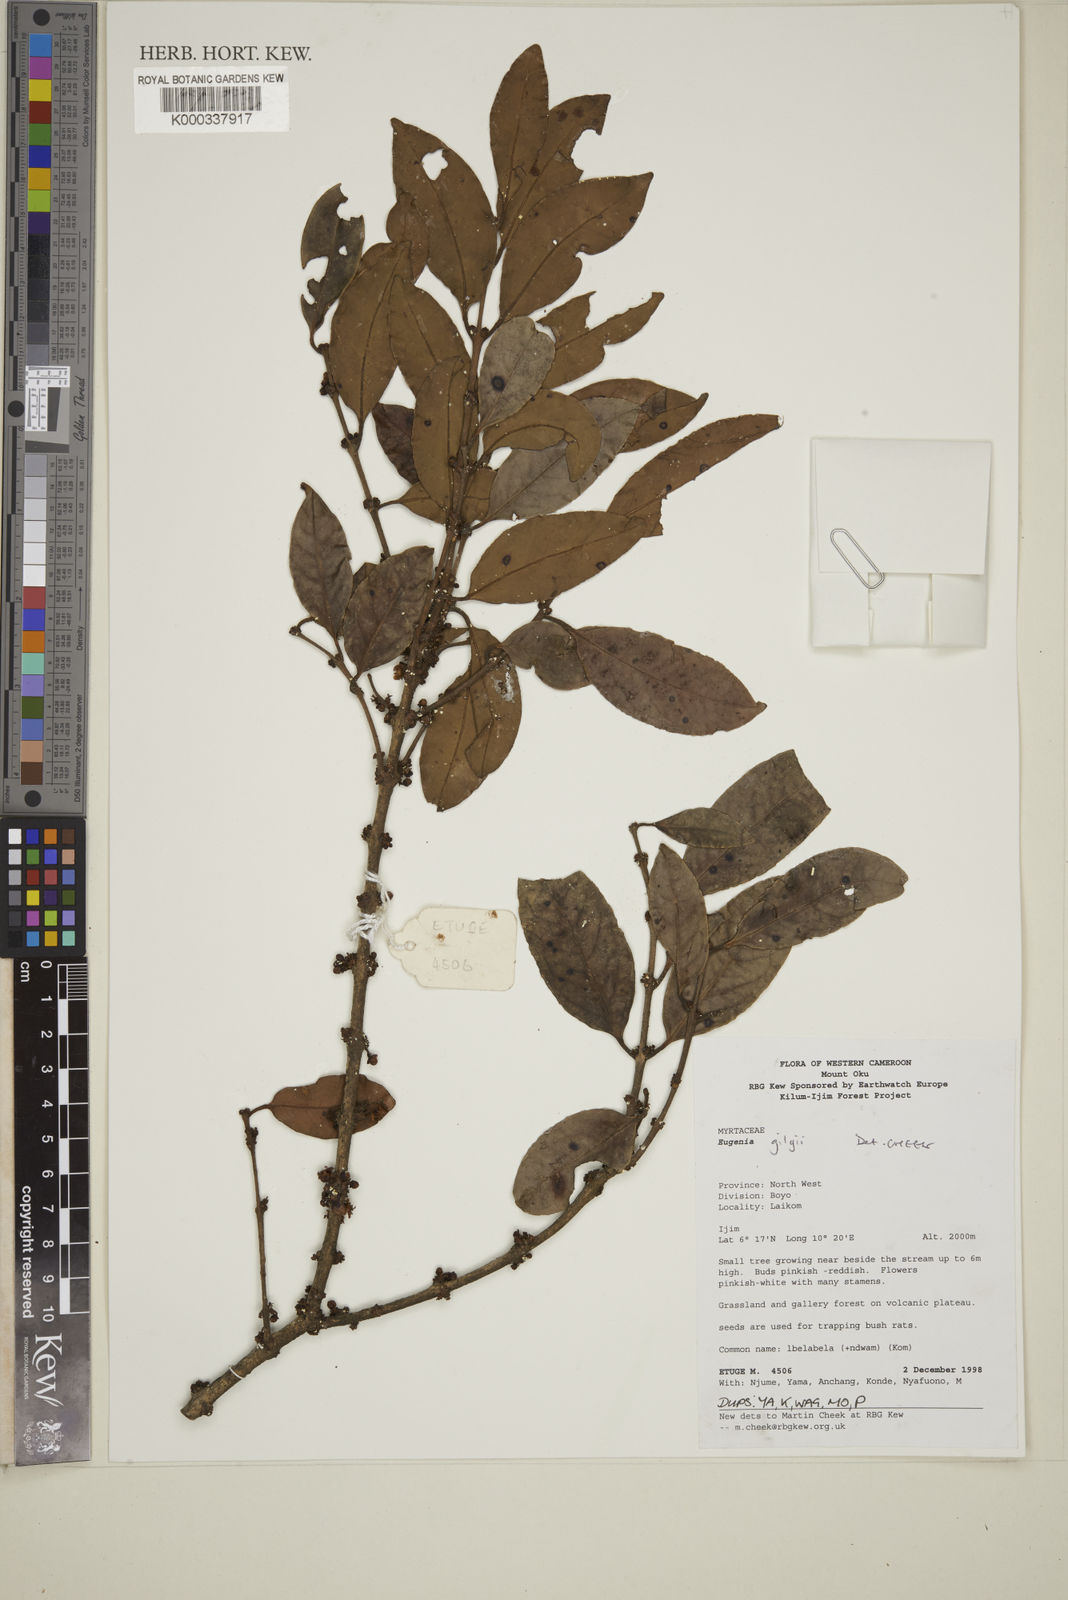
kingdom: Plantae
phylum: Tracheophyta
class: Magnoliopsida
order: Myrtales
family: Myrtaceae
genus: Eugenia
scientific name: Eugenia gilgii
